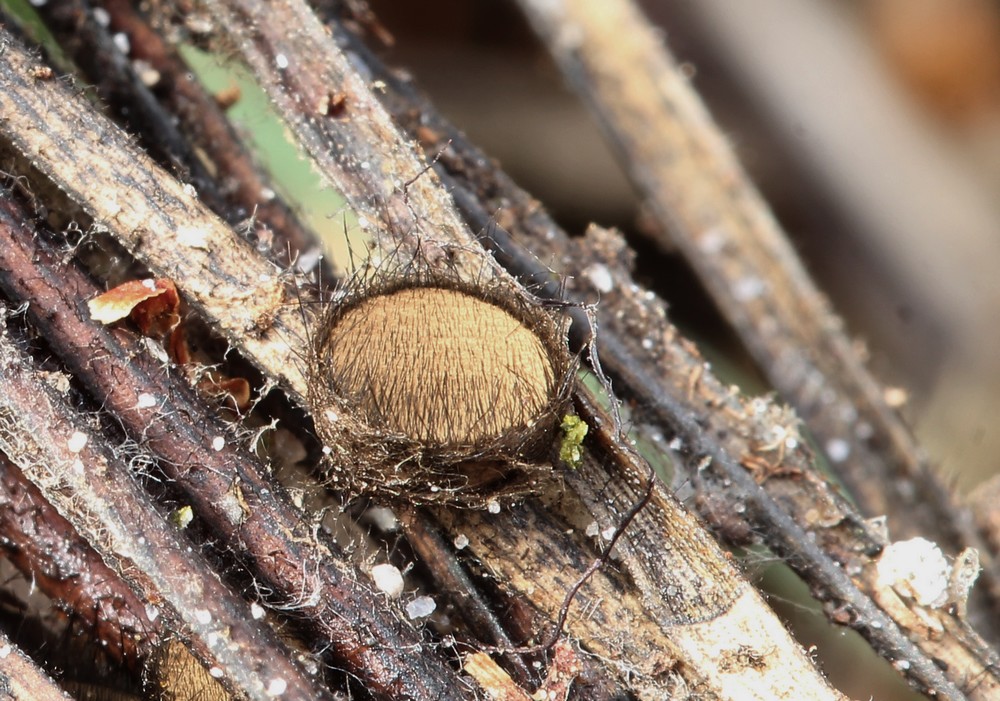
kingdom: Fungi
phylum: Ascomycota
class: Pezizomycetes
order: Pezizales
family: Chorioactidaceae
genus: Desmazierella
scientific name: Desmazierella acicola
